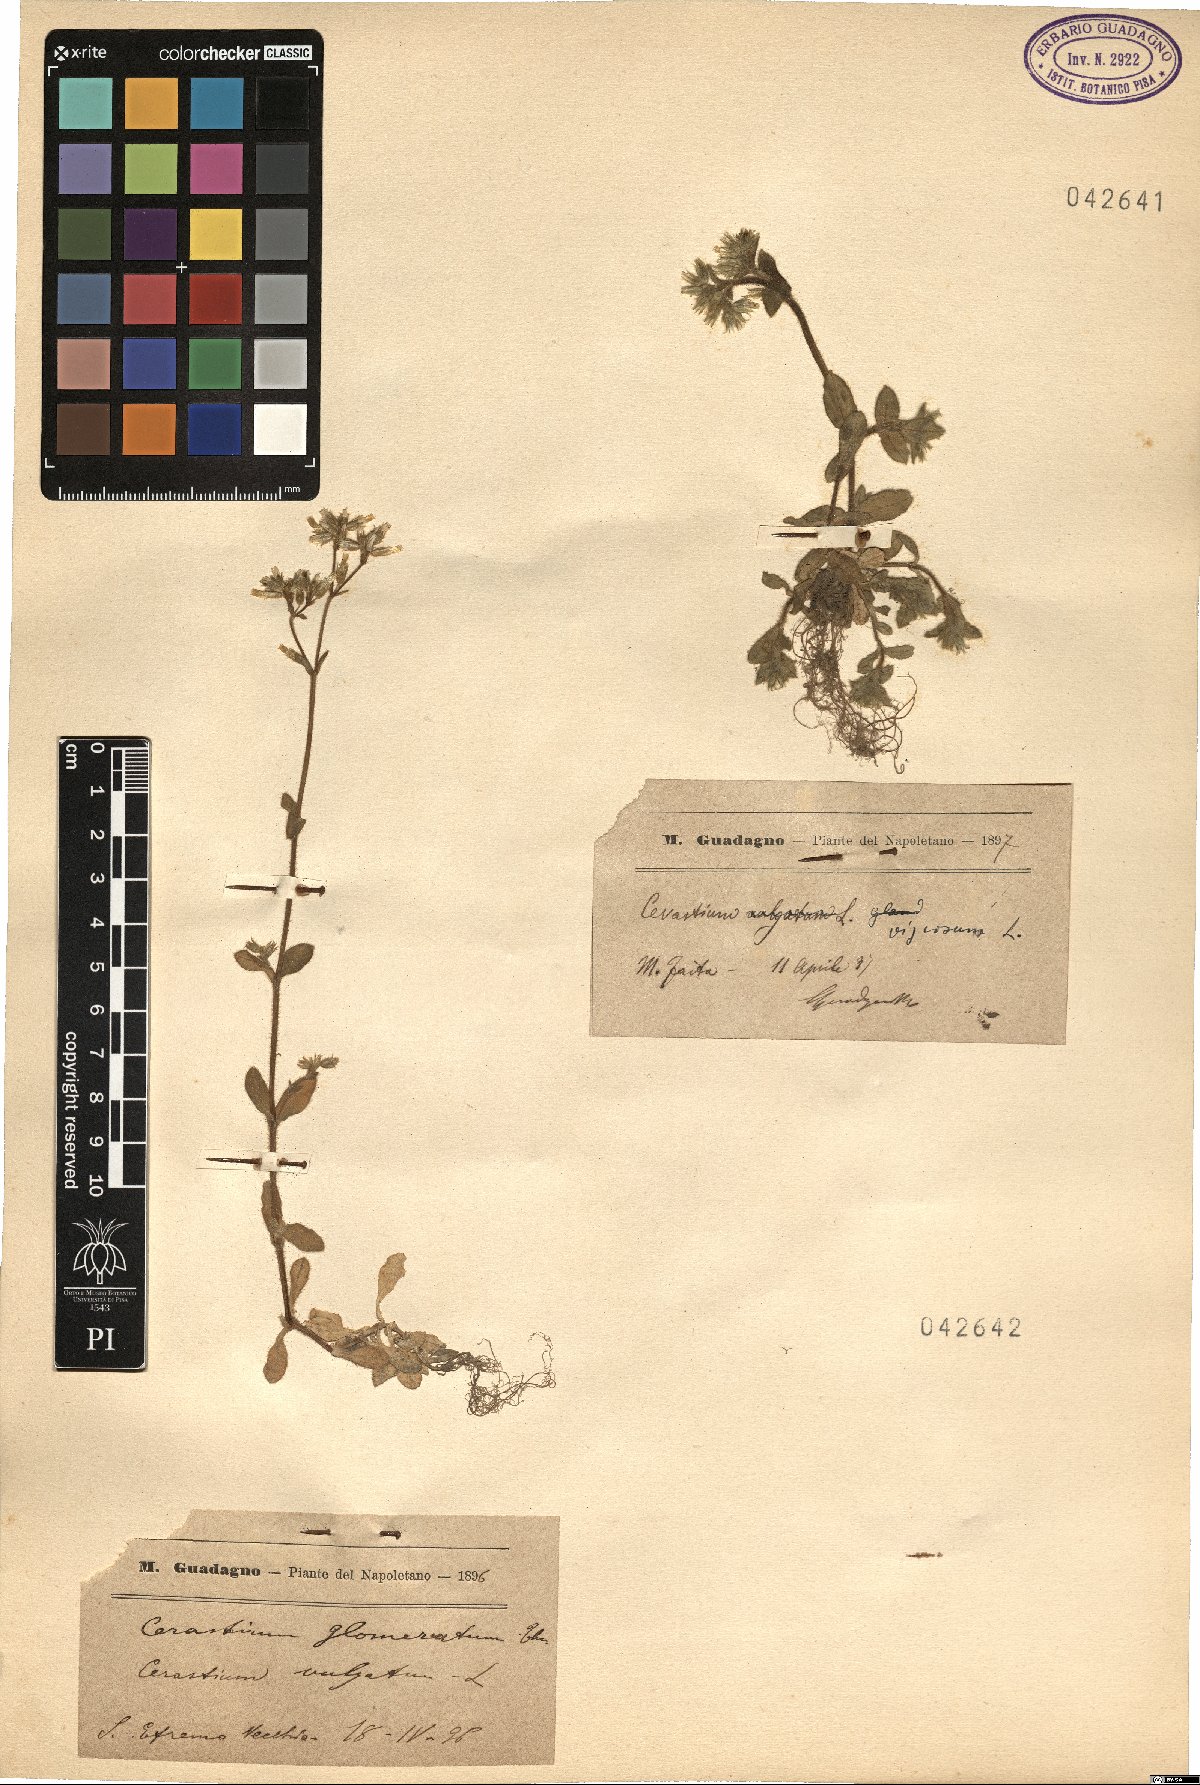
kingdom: Plantae
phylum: Tracheophyta
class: Magnoliopsida
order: Caryophyllales
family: Caryophyllaceae
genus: Cerastium
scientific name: Cerastium holosteoides
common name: Big chickweed
